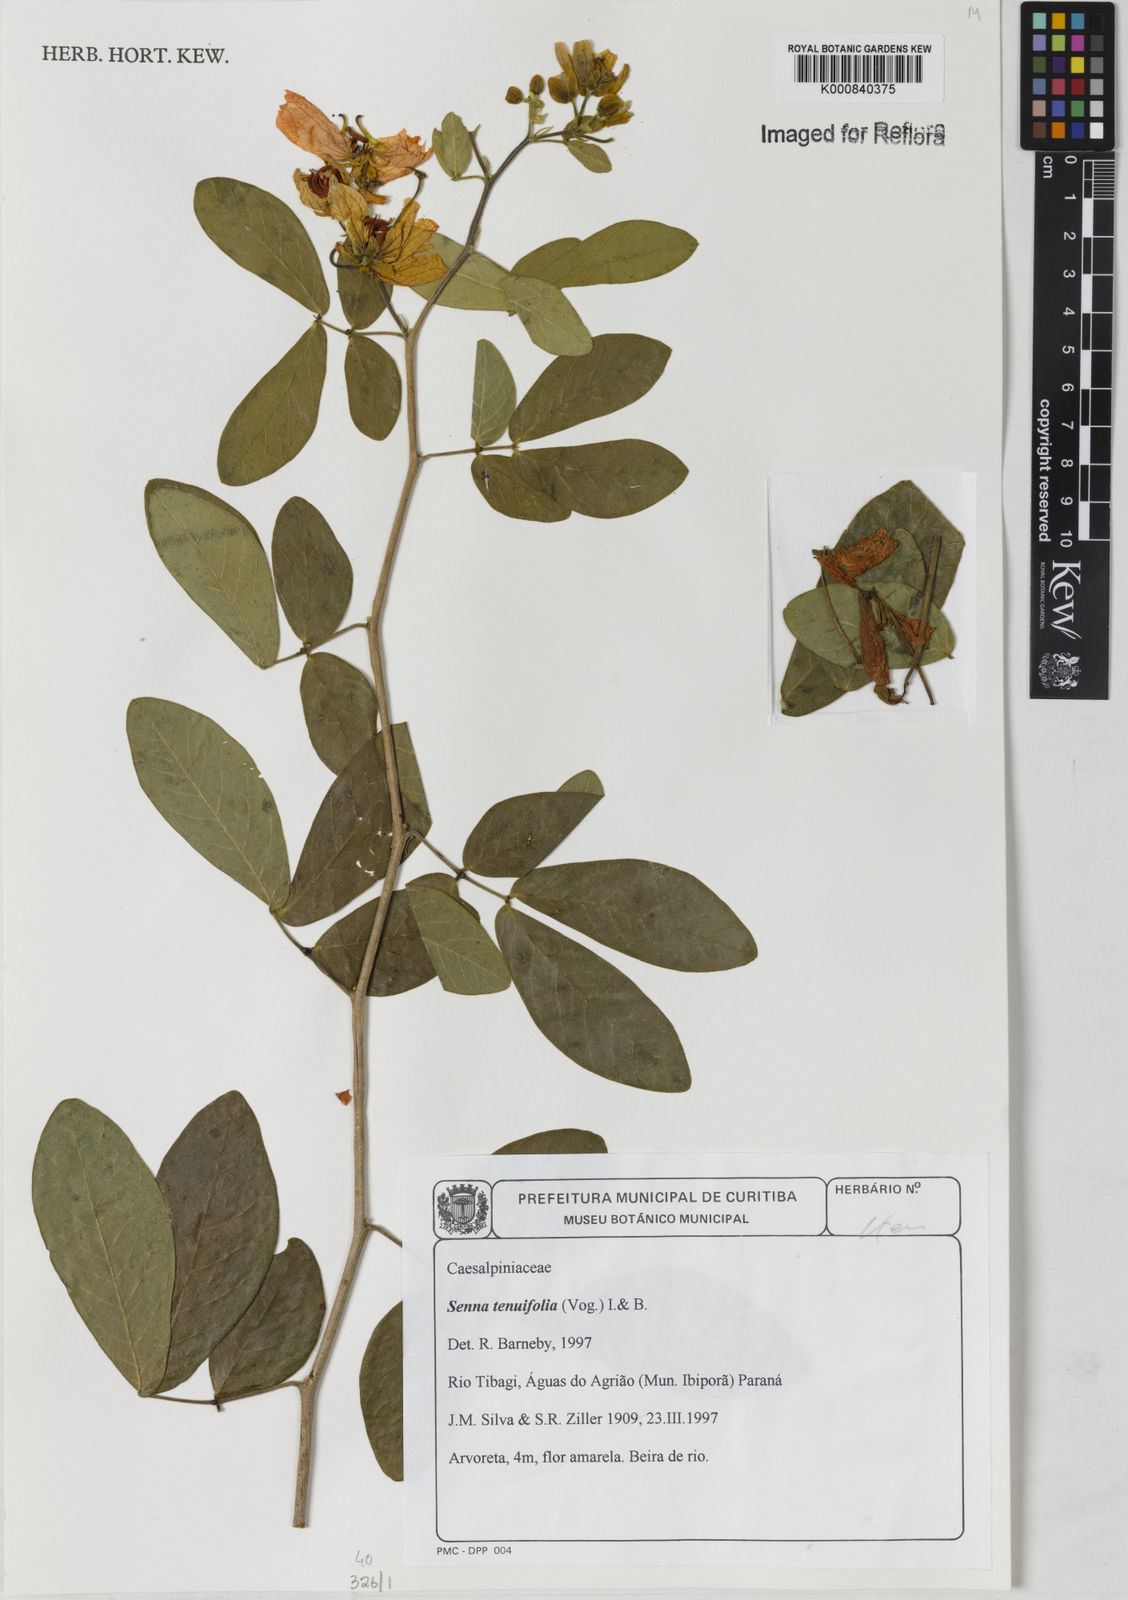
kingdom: Plantae
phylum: Tracheophyta
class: Magnoliopsida
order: Fabales
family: Fabaceae
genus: Senna
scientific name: Senna tenuifolia
